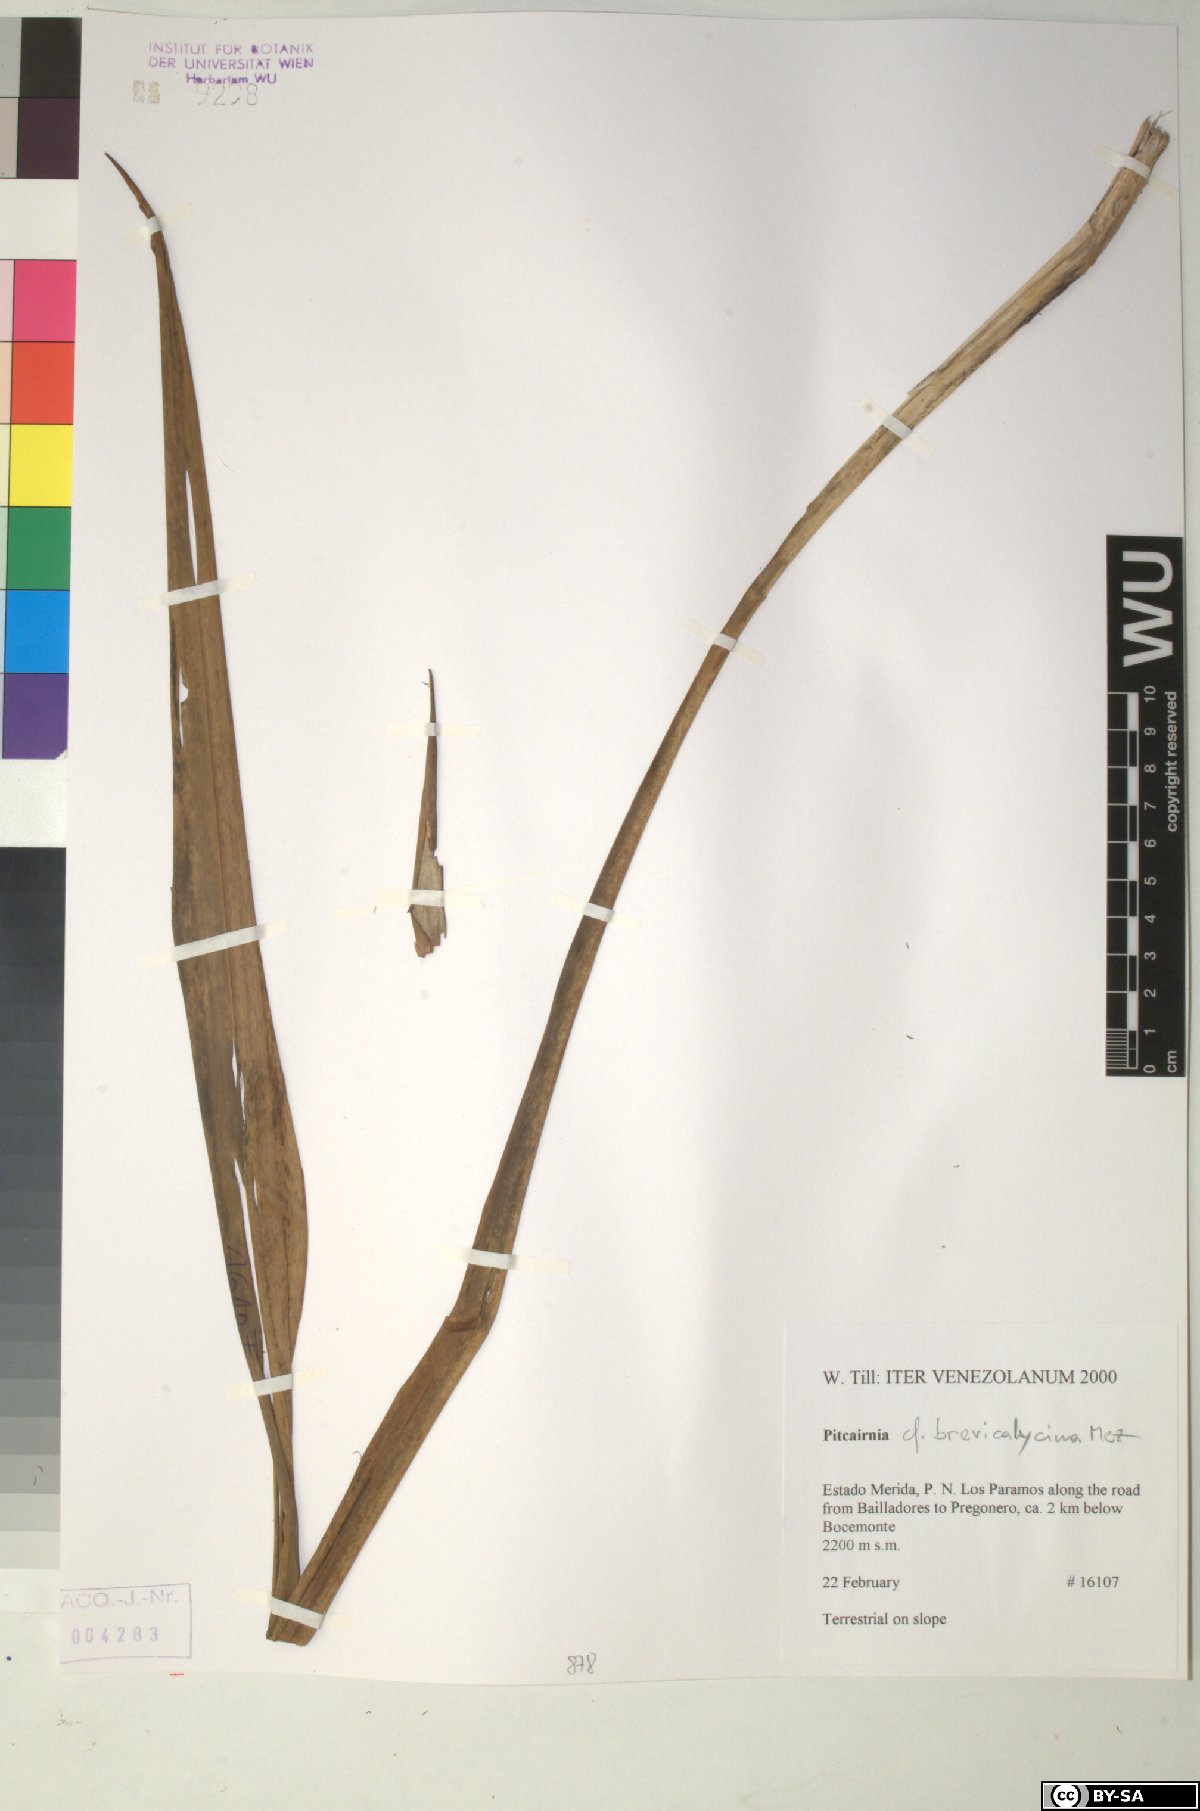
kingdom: Plantae
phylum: Tracheophyta
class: Liliopsida
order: Poales
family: Bromeliaceae
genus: Pitcairnia
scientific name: Pitcairnia brevicalycina
